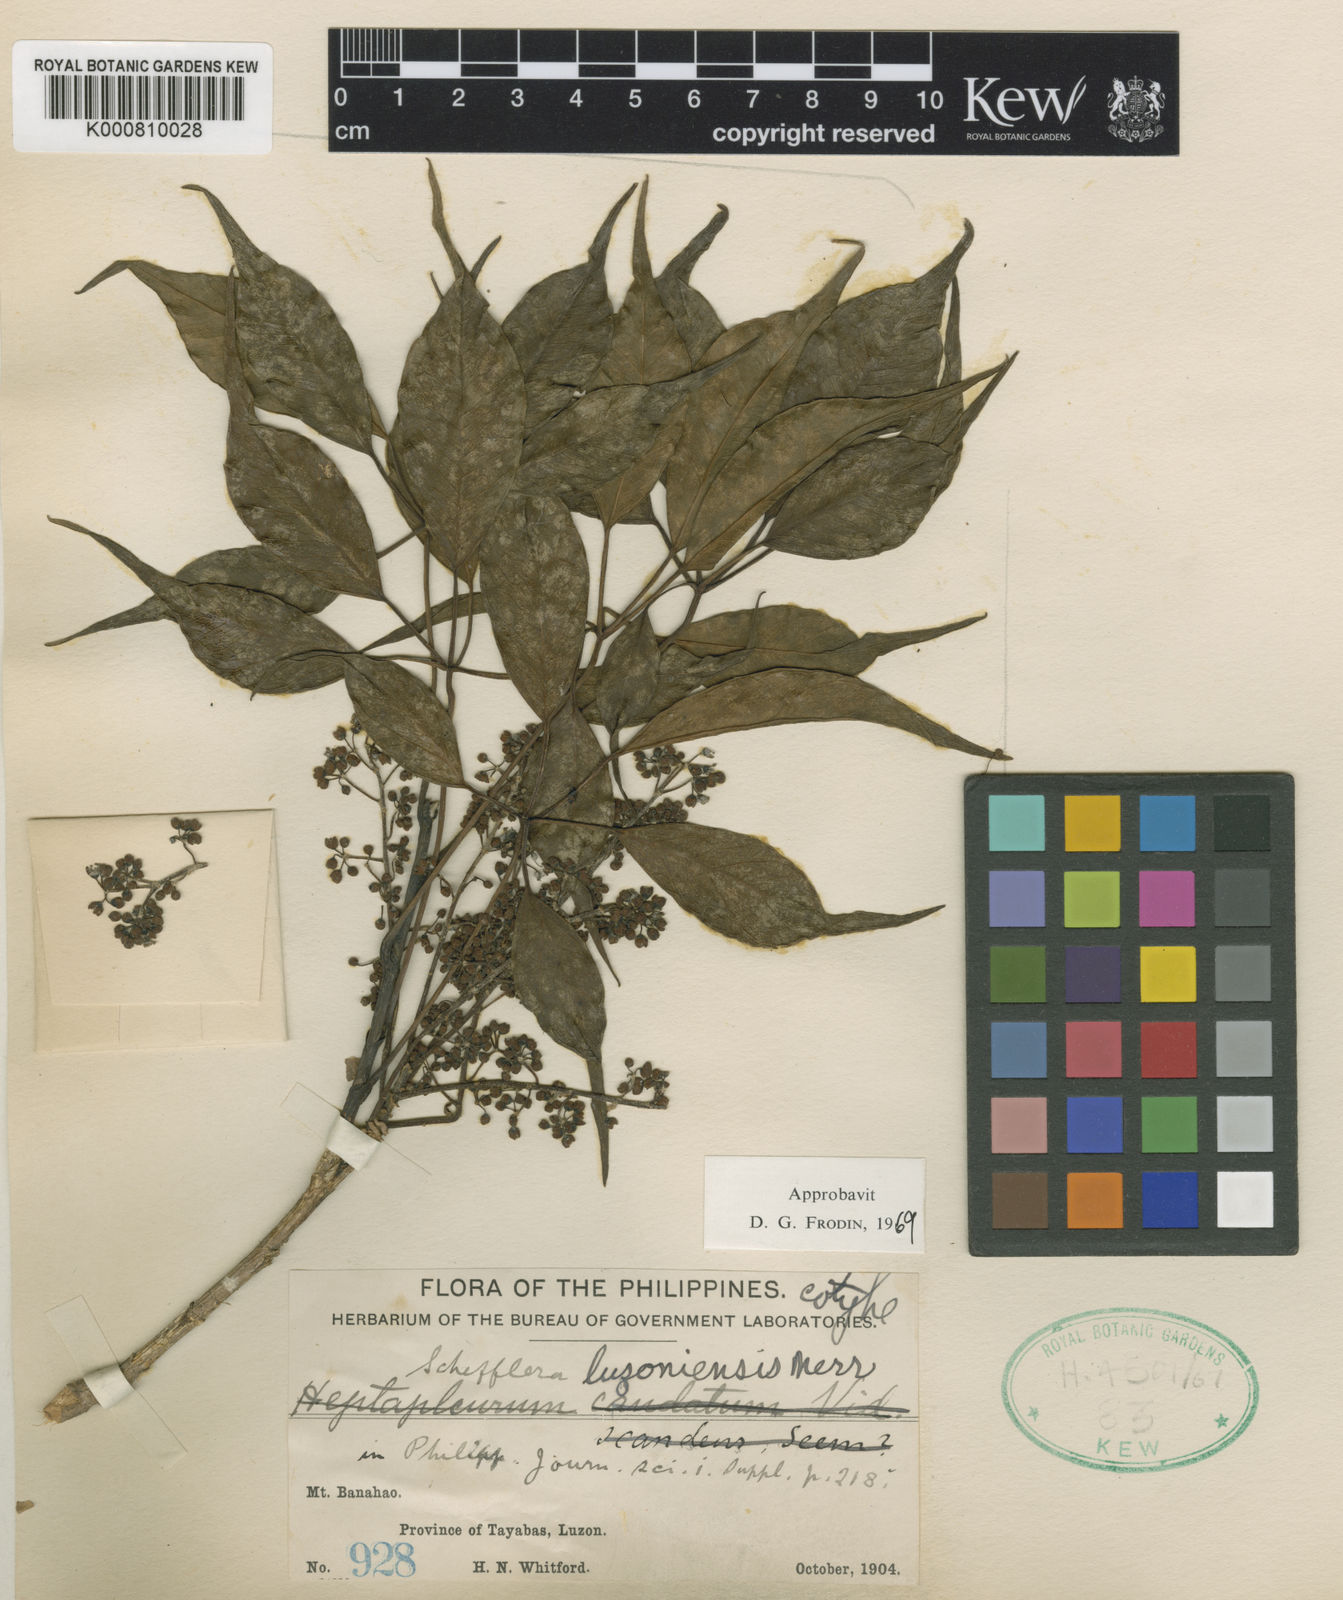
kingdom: Plantae
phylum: Tracheophyta
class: Magnoliopsida
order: Apiales
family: Araliaceae
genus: Heptapleurum
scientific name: Heptapleurum luzoniense
